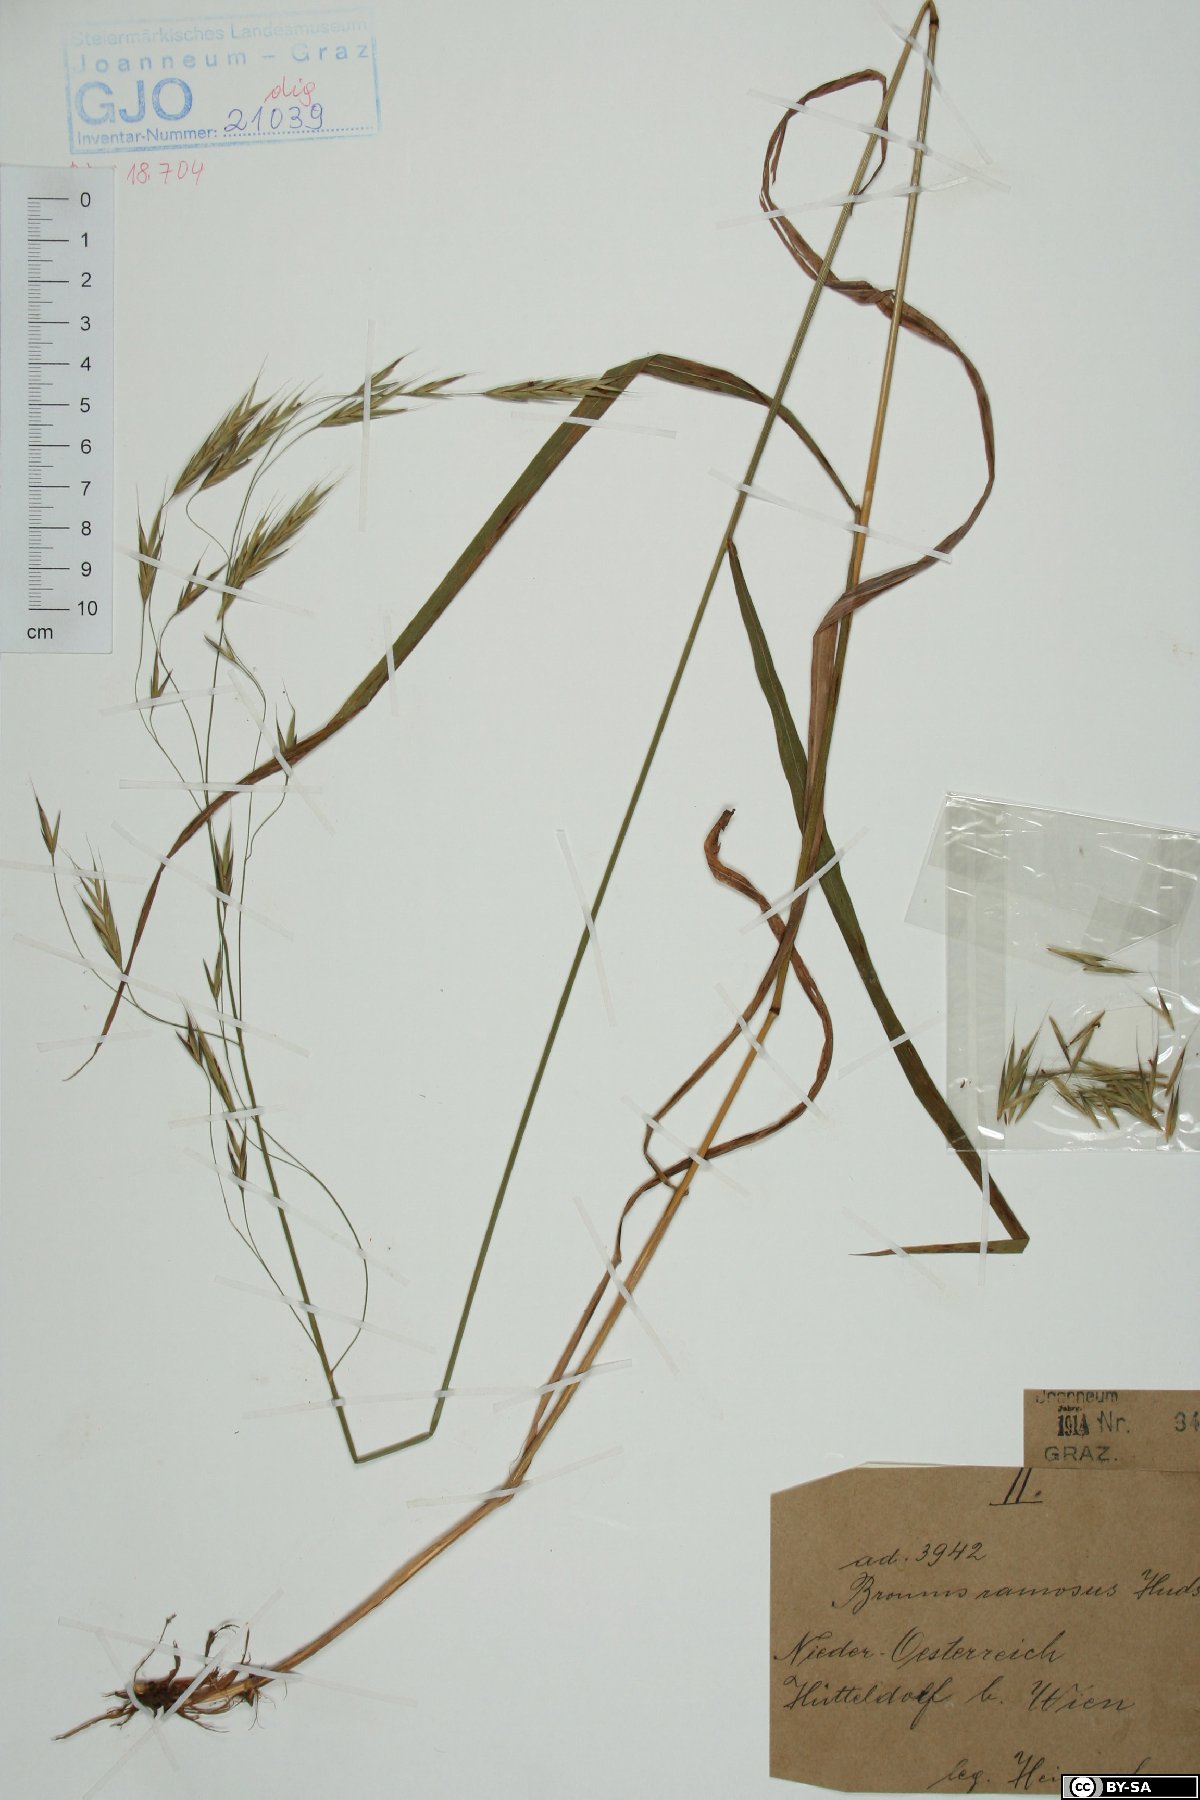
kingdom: Plantae
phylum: Tracheophyta
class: Liliopsida
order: Poales
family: Poaceae
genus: Bromus
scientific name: Bromus ramosus
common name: Hairy brome
